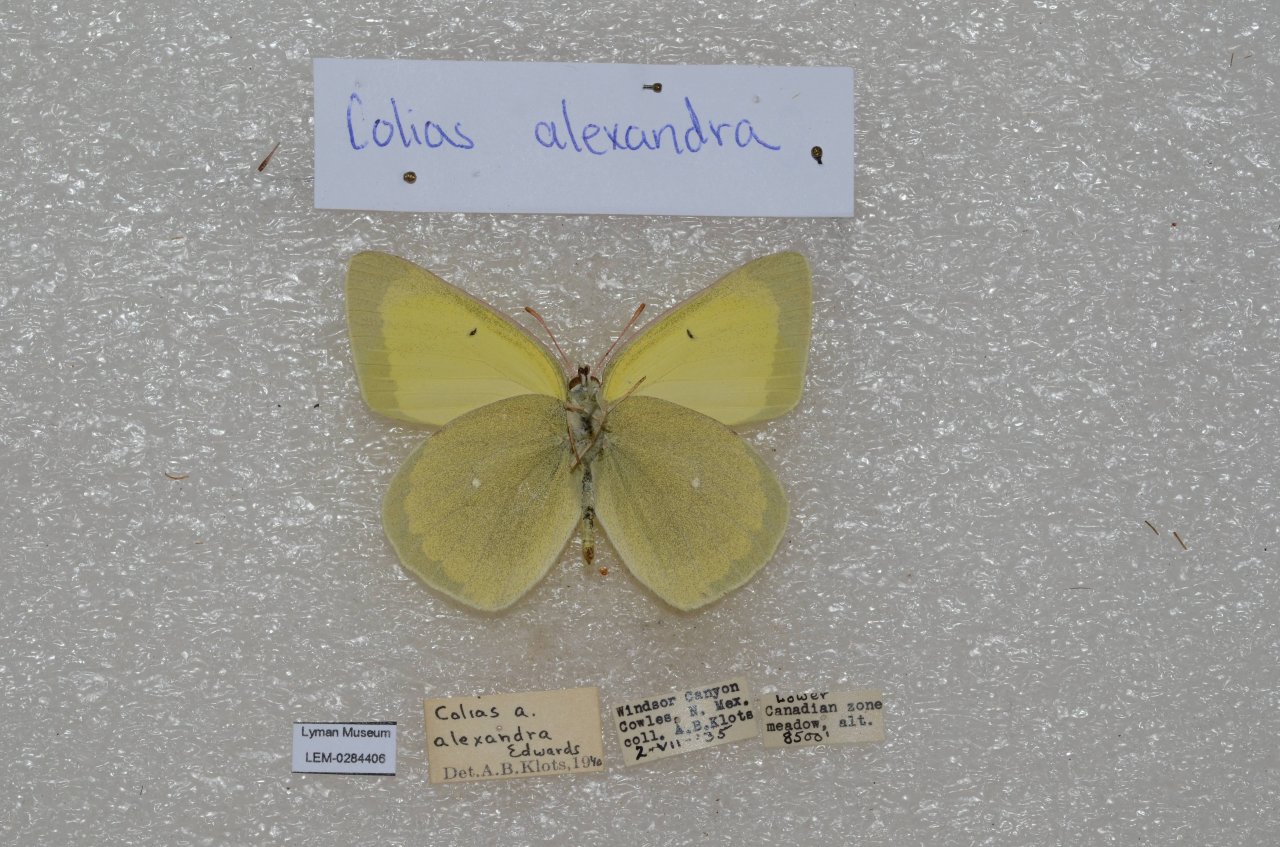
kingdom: Animalia
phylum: Arthropoda
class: Insecta
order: Lepidoptera
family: Pieridae
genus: Colias
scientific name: Colias alexandra
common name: Queen Alexandra's Sulphur
